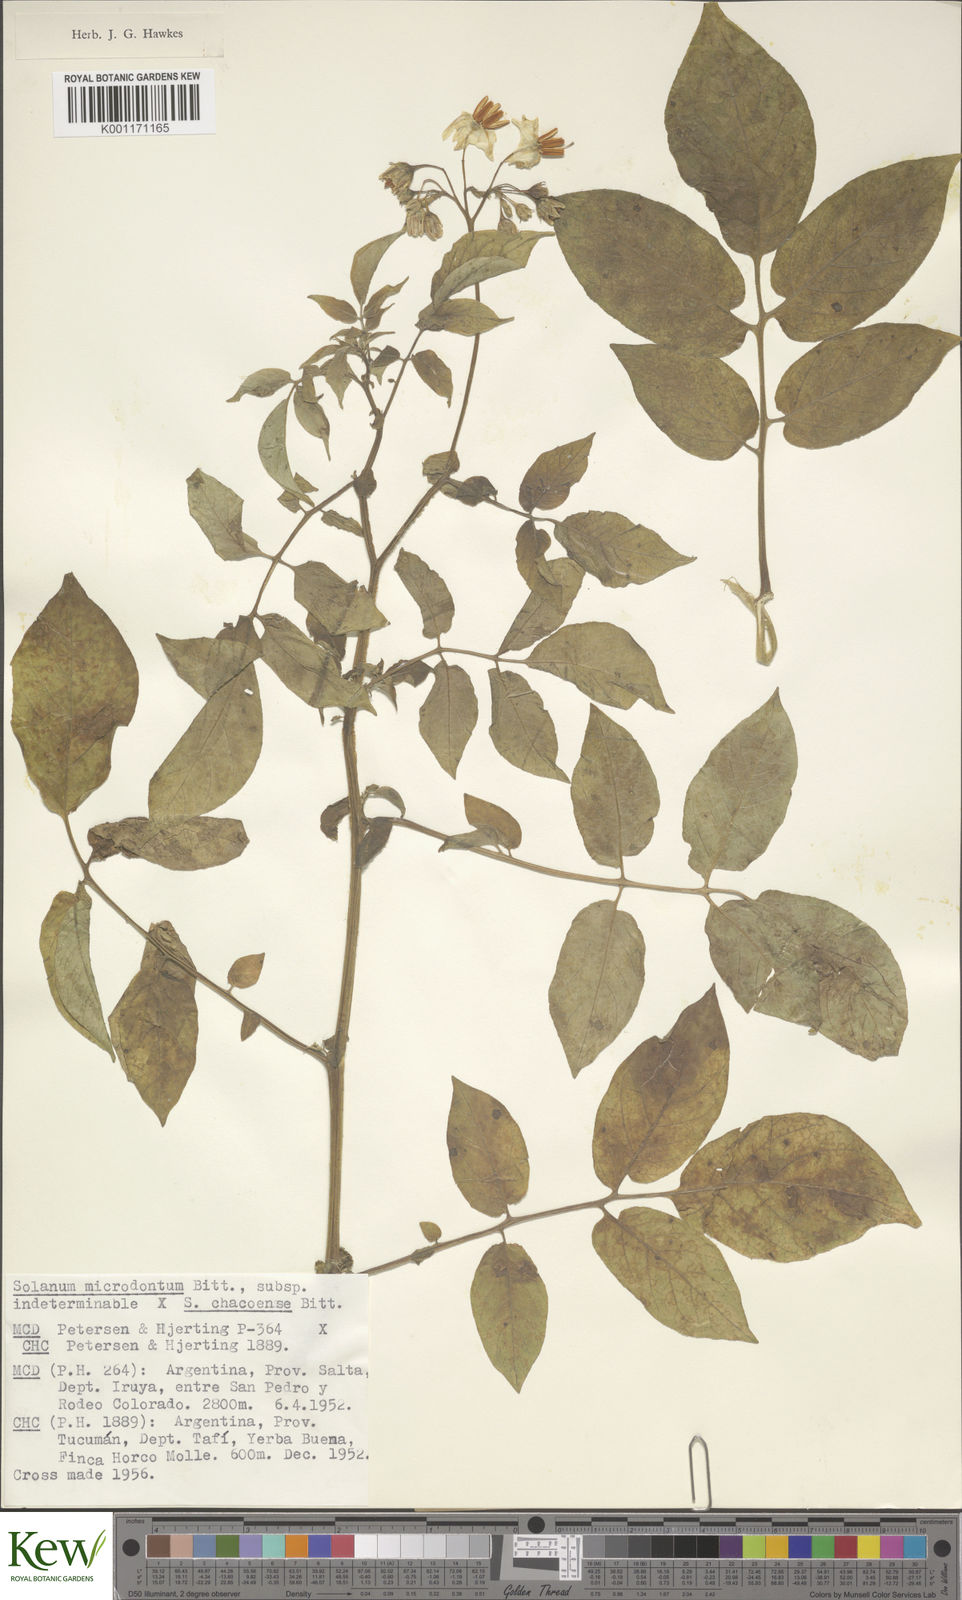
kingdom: Plantae
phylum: Tracheophyta
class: Magnoliopsida
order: Solanales
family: Solanaceae
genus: Solanum
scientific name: Solanum microdontum
